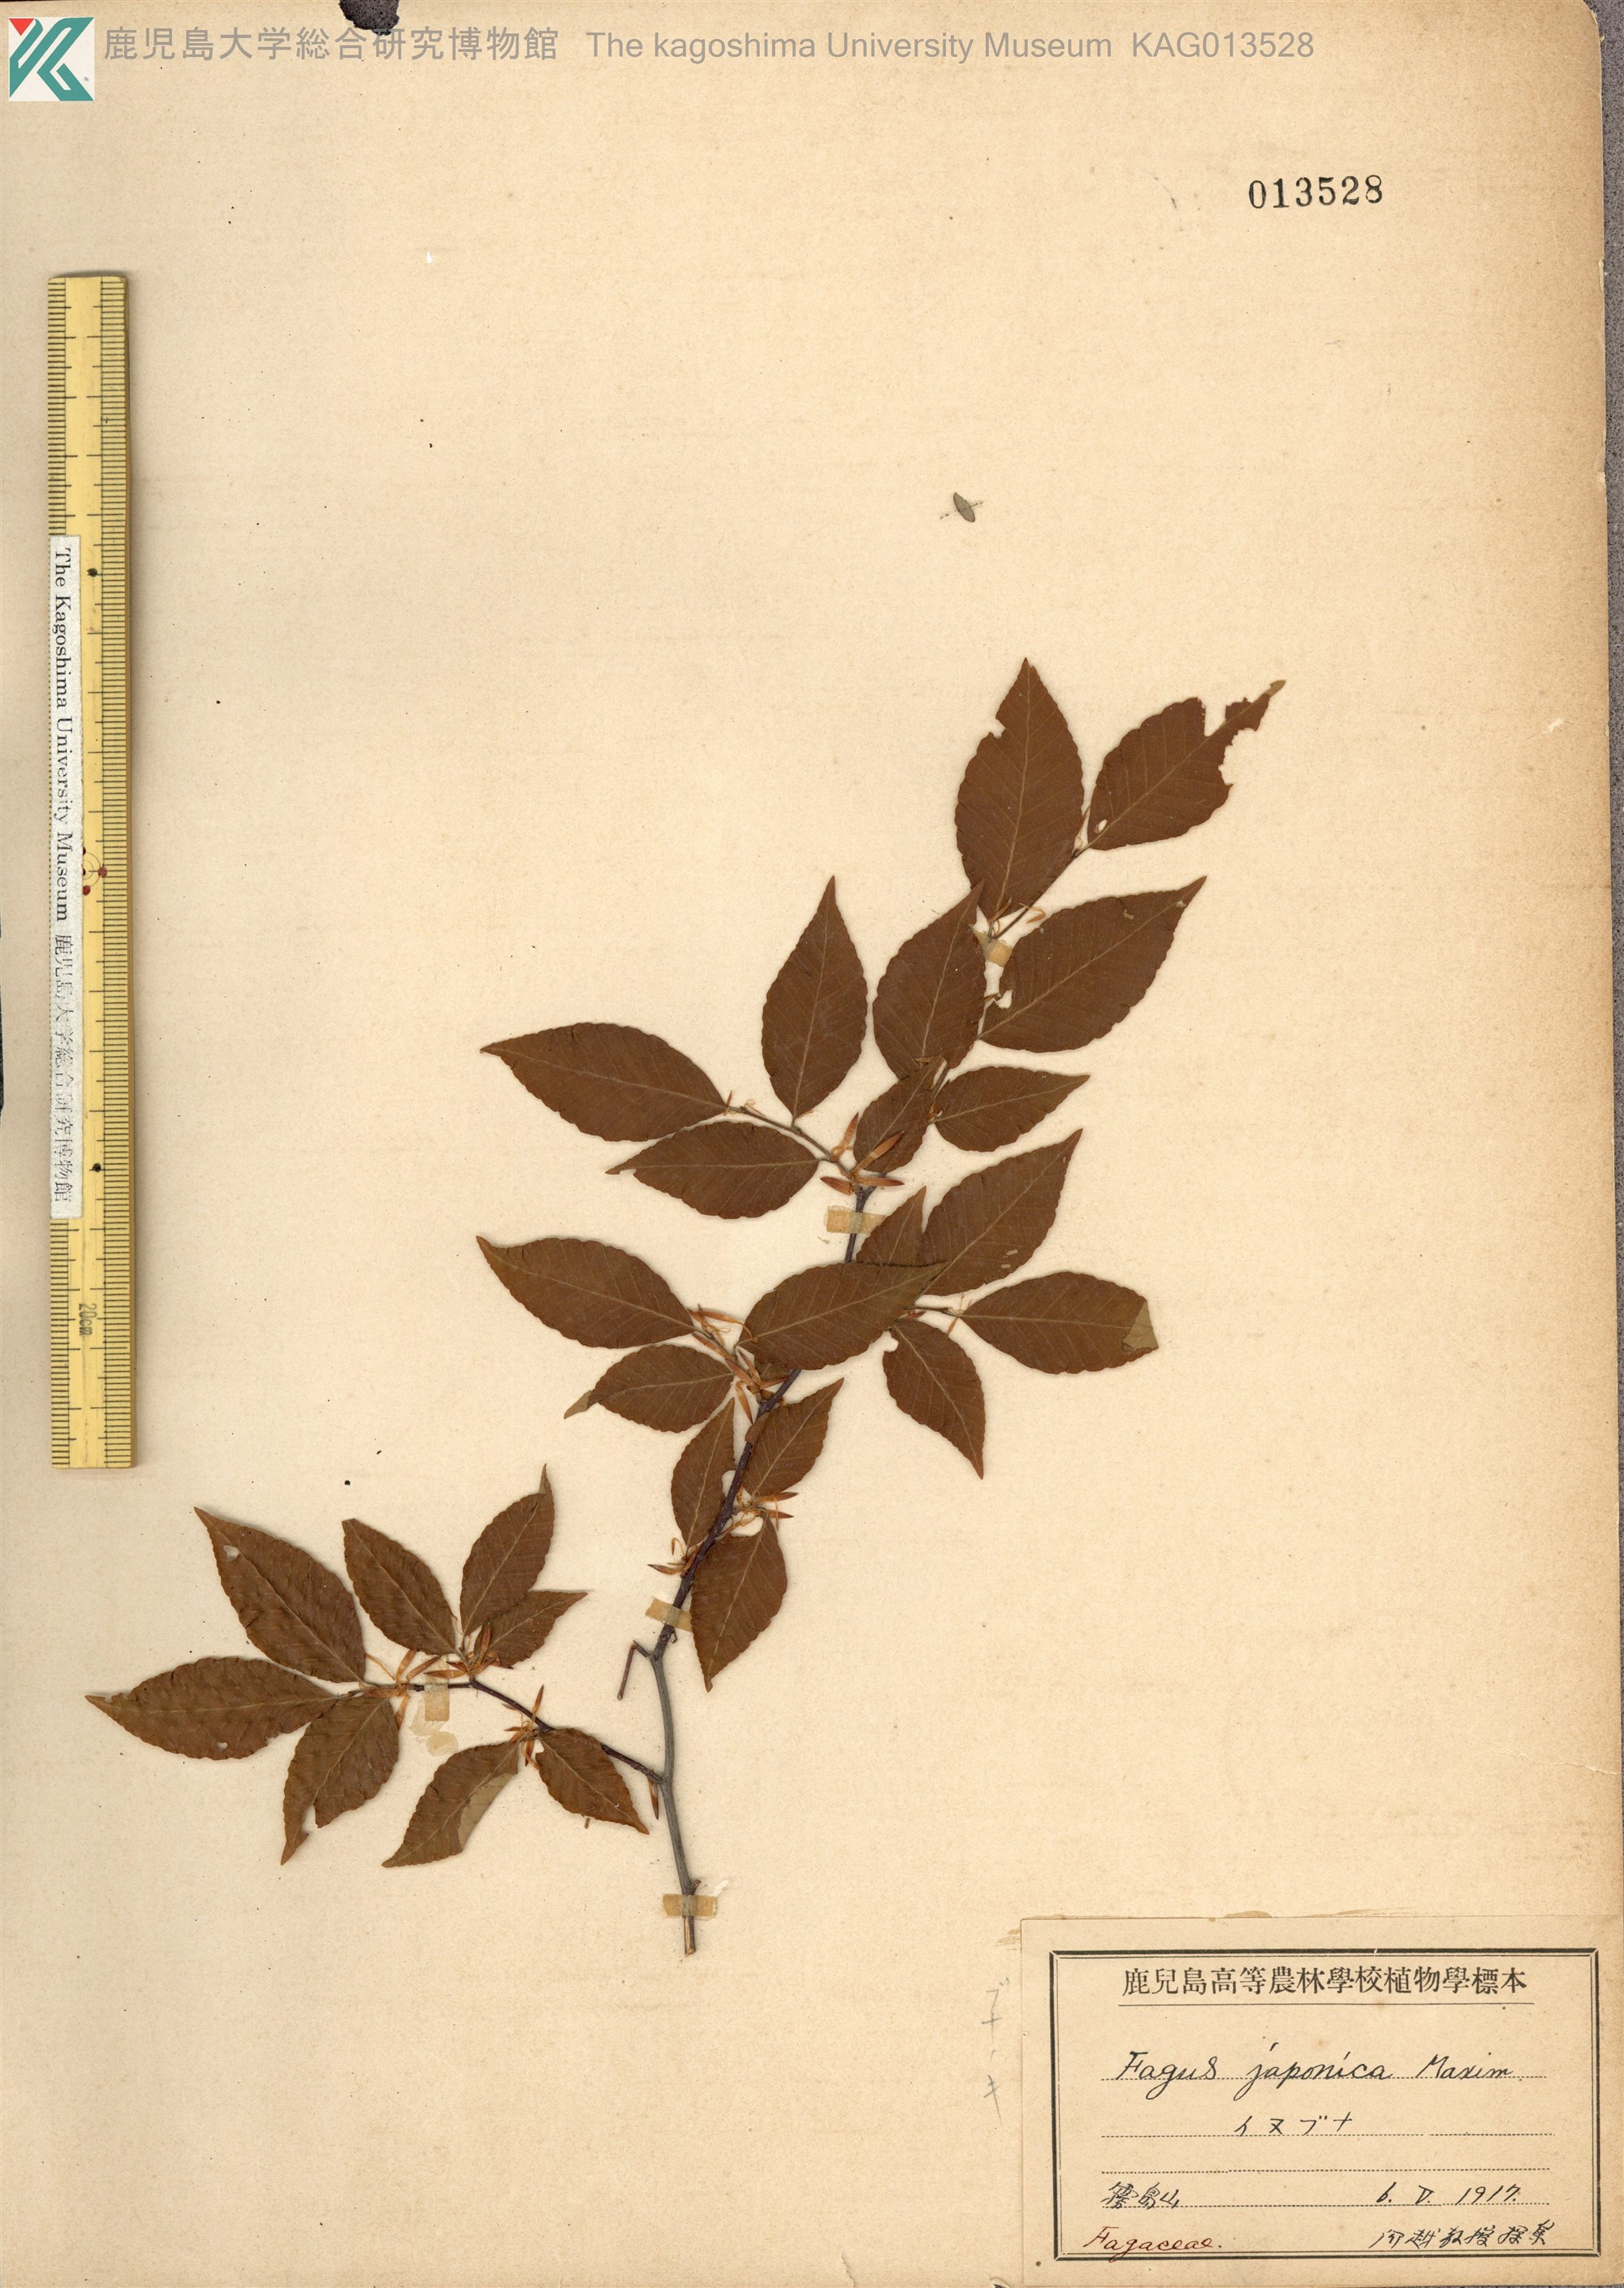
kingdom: Plantae
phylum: Tracheophyta
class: Magnoliopsida
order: Fagales
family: Fagaceae
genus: Fagus
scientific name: Fagus crenata
